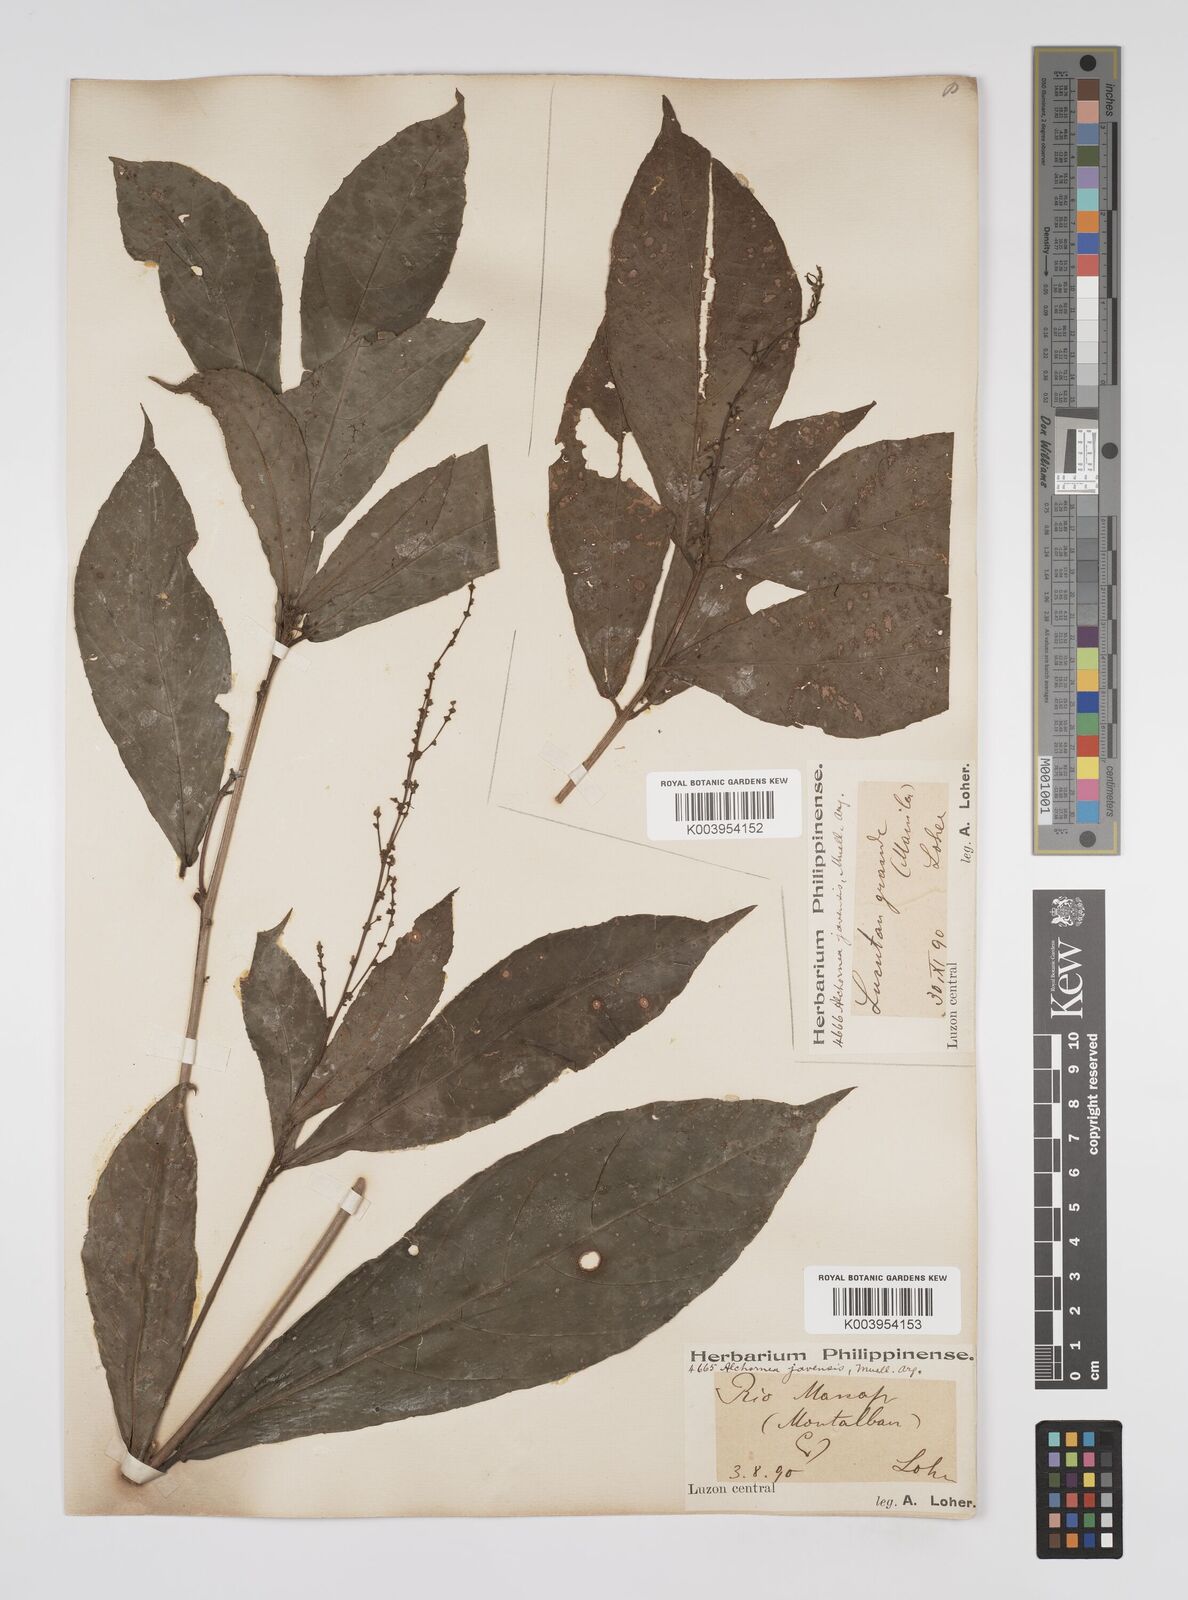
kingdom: Plantae
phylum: Tracheophyta
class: Magnoliopsida
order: Malpighiales
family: Euphorbiaceae
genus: Alchornea
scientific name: Alchornea rugosa
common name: Alchorntree
